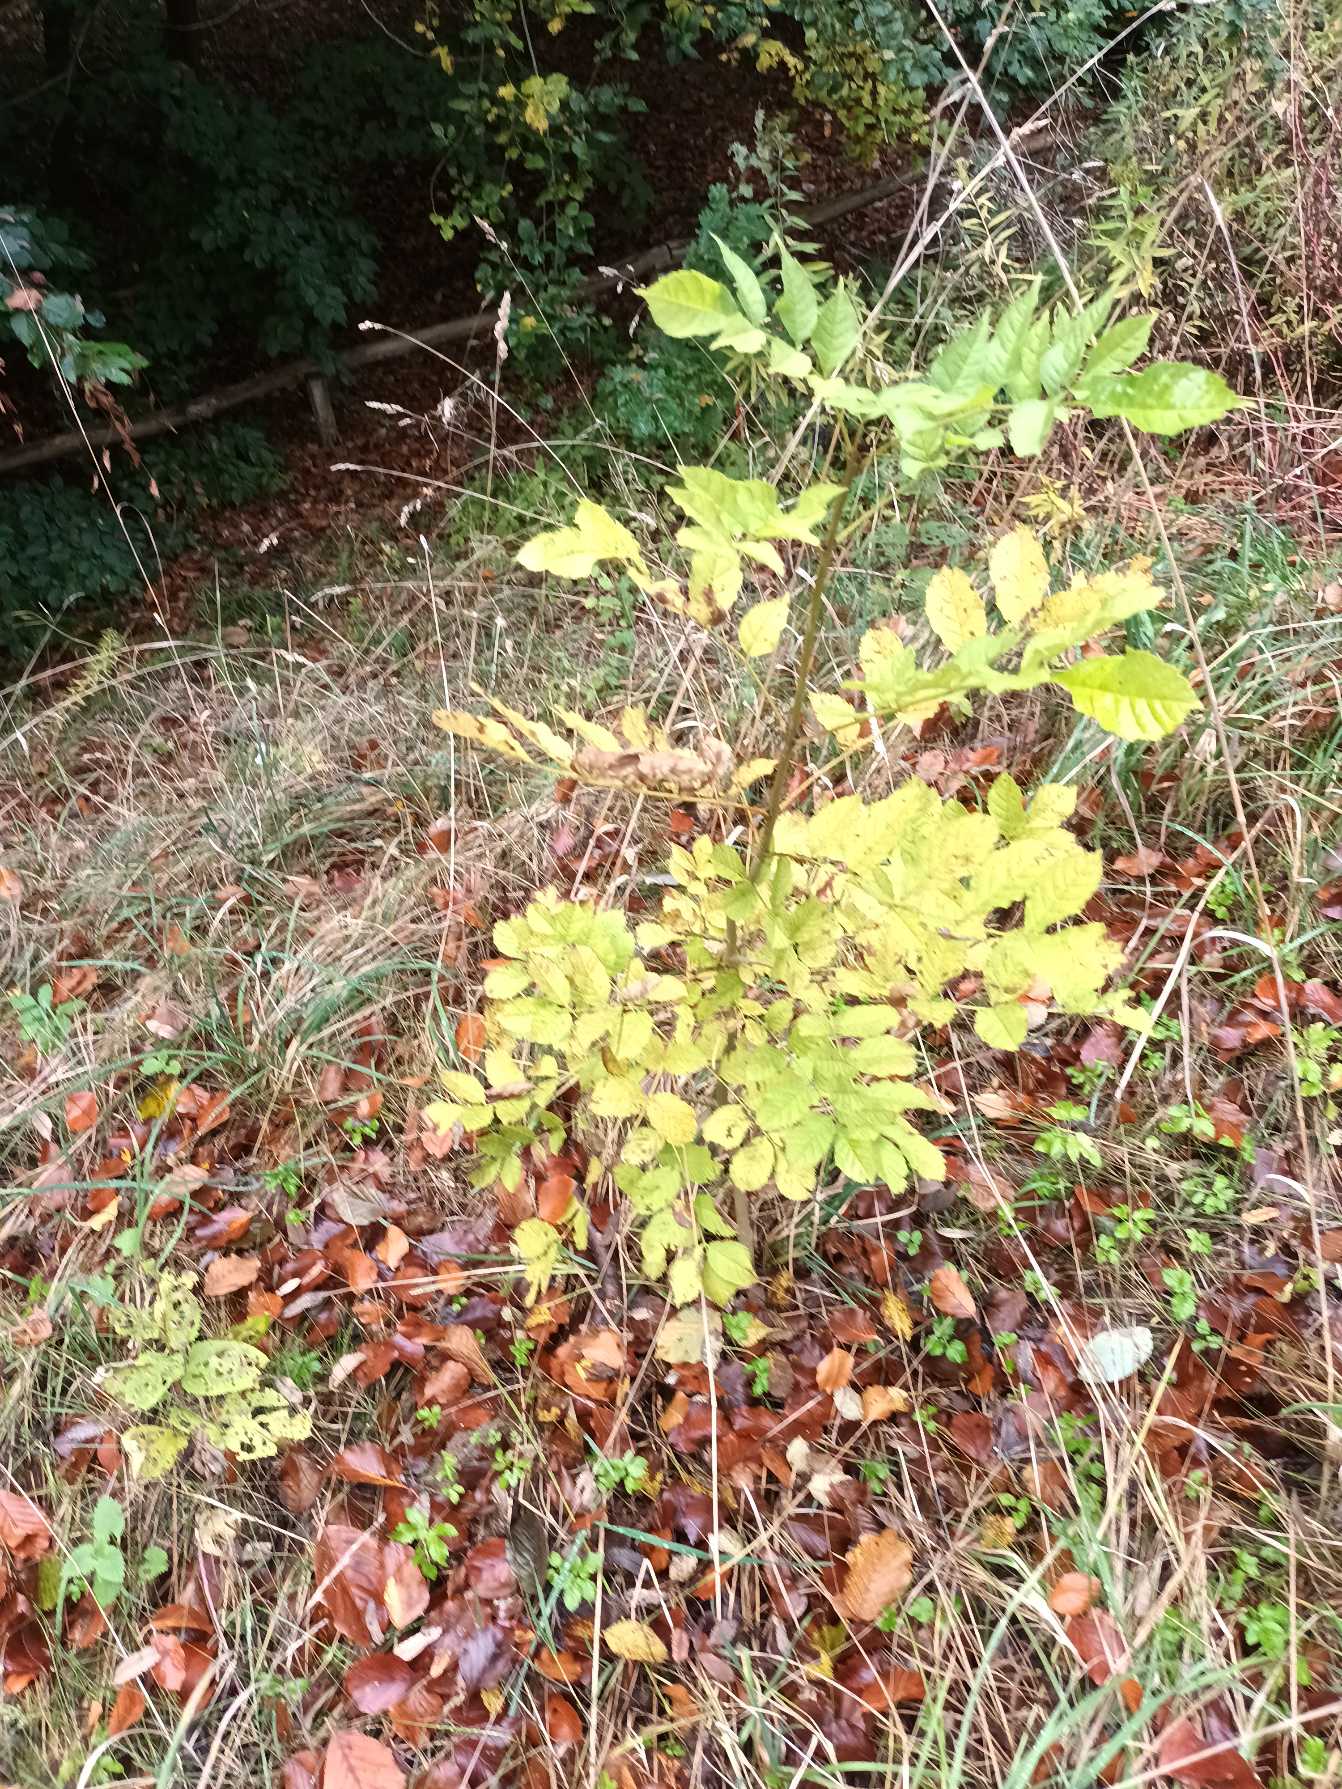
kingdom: Plantae
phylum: Tracheophyta
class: Magnoliopsida
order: Lamiales
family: Oleaceae
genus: Fraxinus
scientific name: Fraxinus excelsior
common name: Ask
